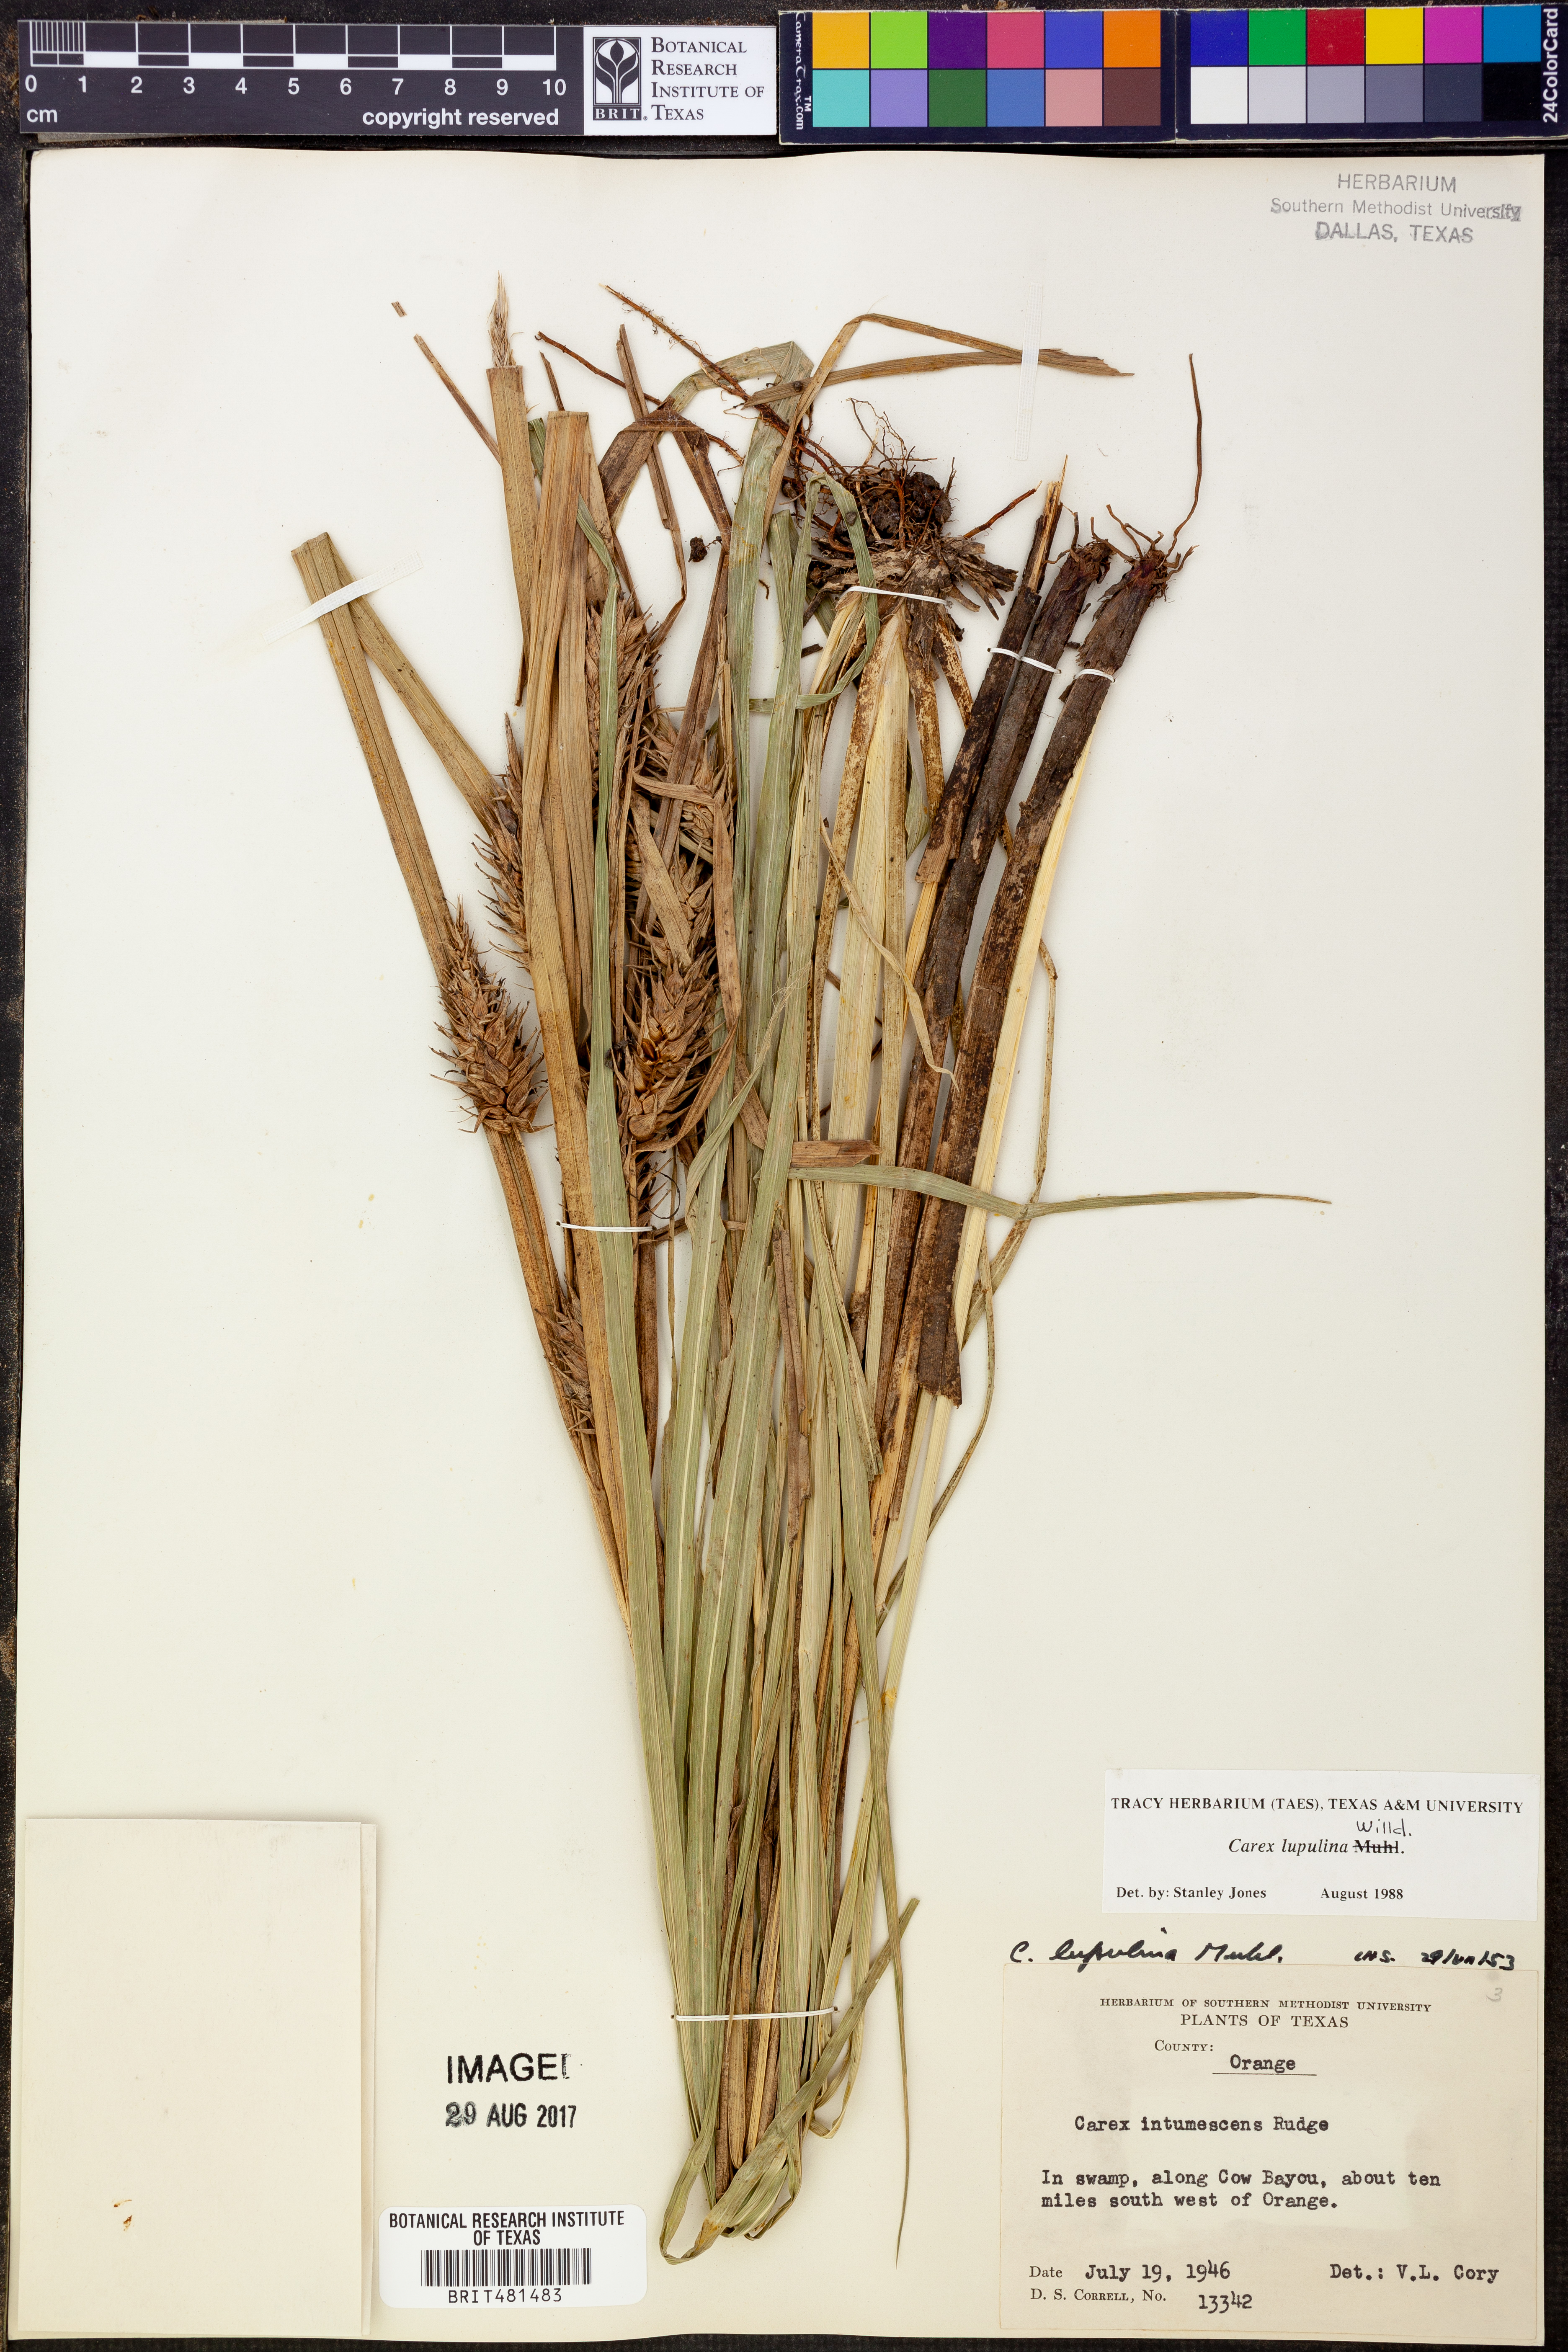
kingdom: Plantae
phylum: Tracheophyta
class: Liliopsida
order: Poales
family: Cyperaceae
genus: Carex
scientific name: Carex lupulina
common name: Hop sedge
